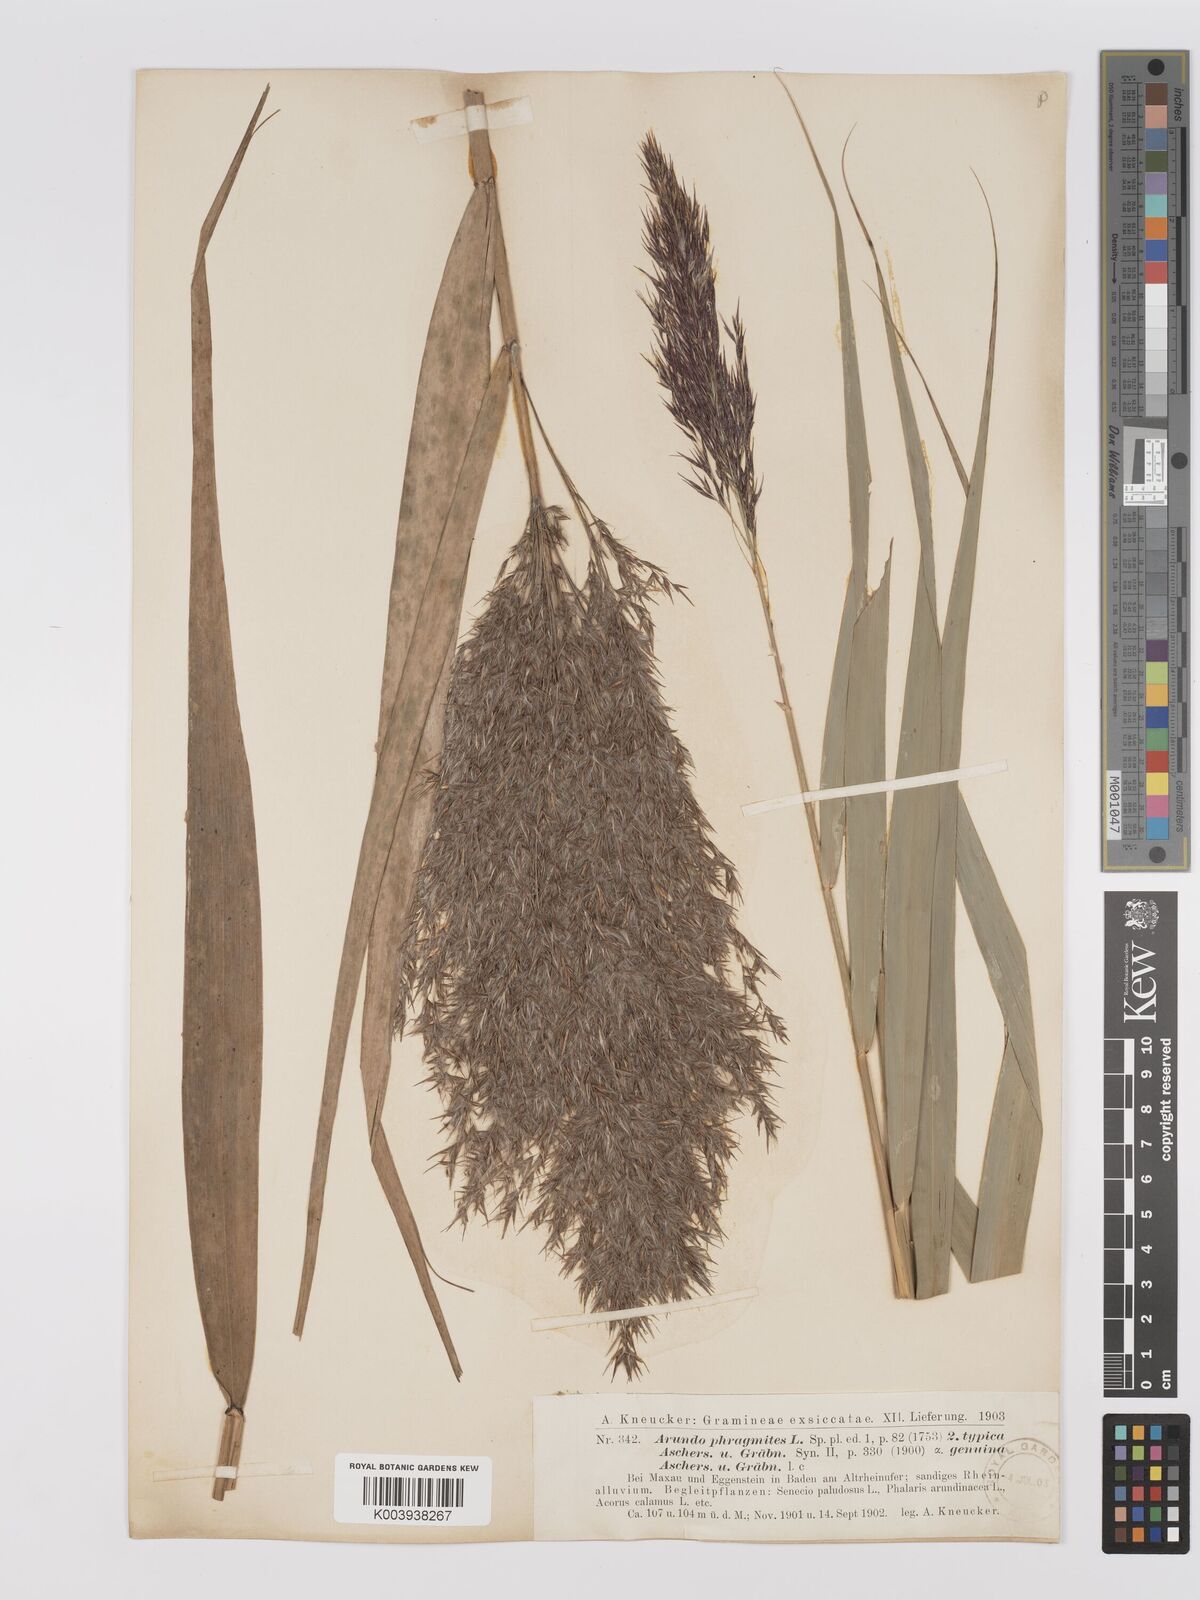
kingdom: Plantae
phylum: Tracheophyta
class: Liliopsida
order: Poales
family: Poaceae
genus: Phragmites
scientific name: Phragmites australis
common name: Common reed
